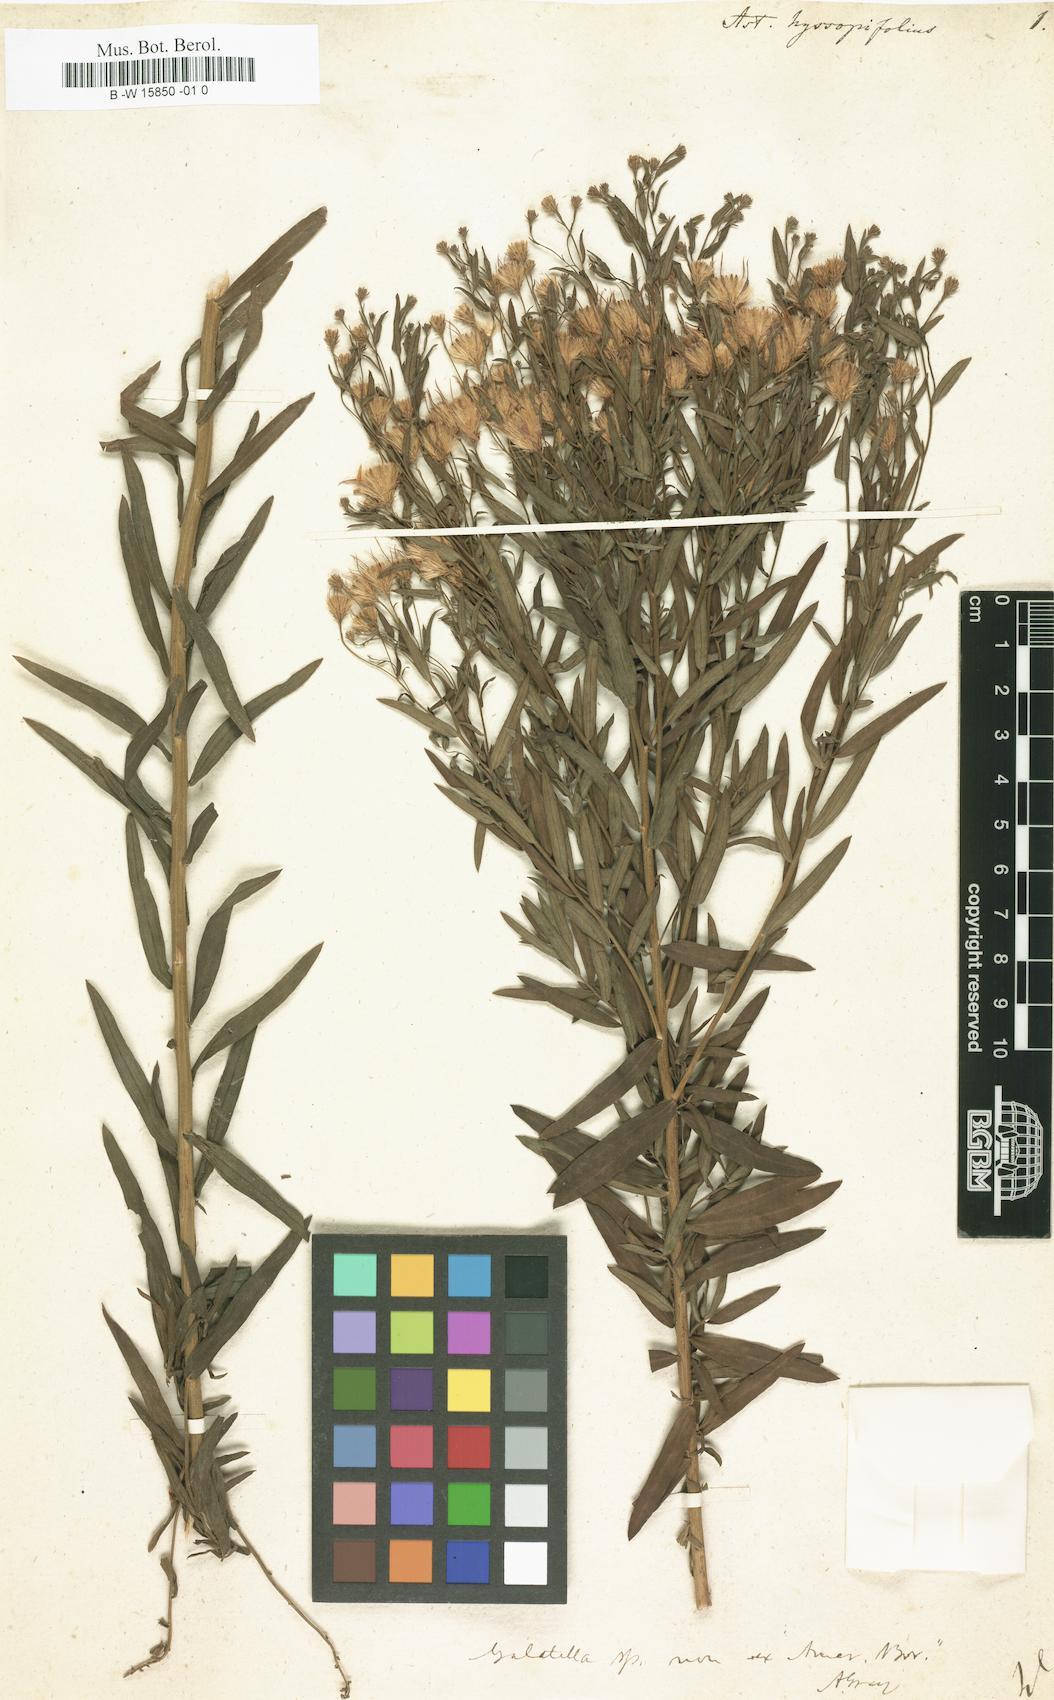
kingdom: Plantae
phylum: Tracheophyta
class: Magnoliopsida
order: Asterales
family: Asteraceae
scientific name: Asteraceae
